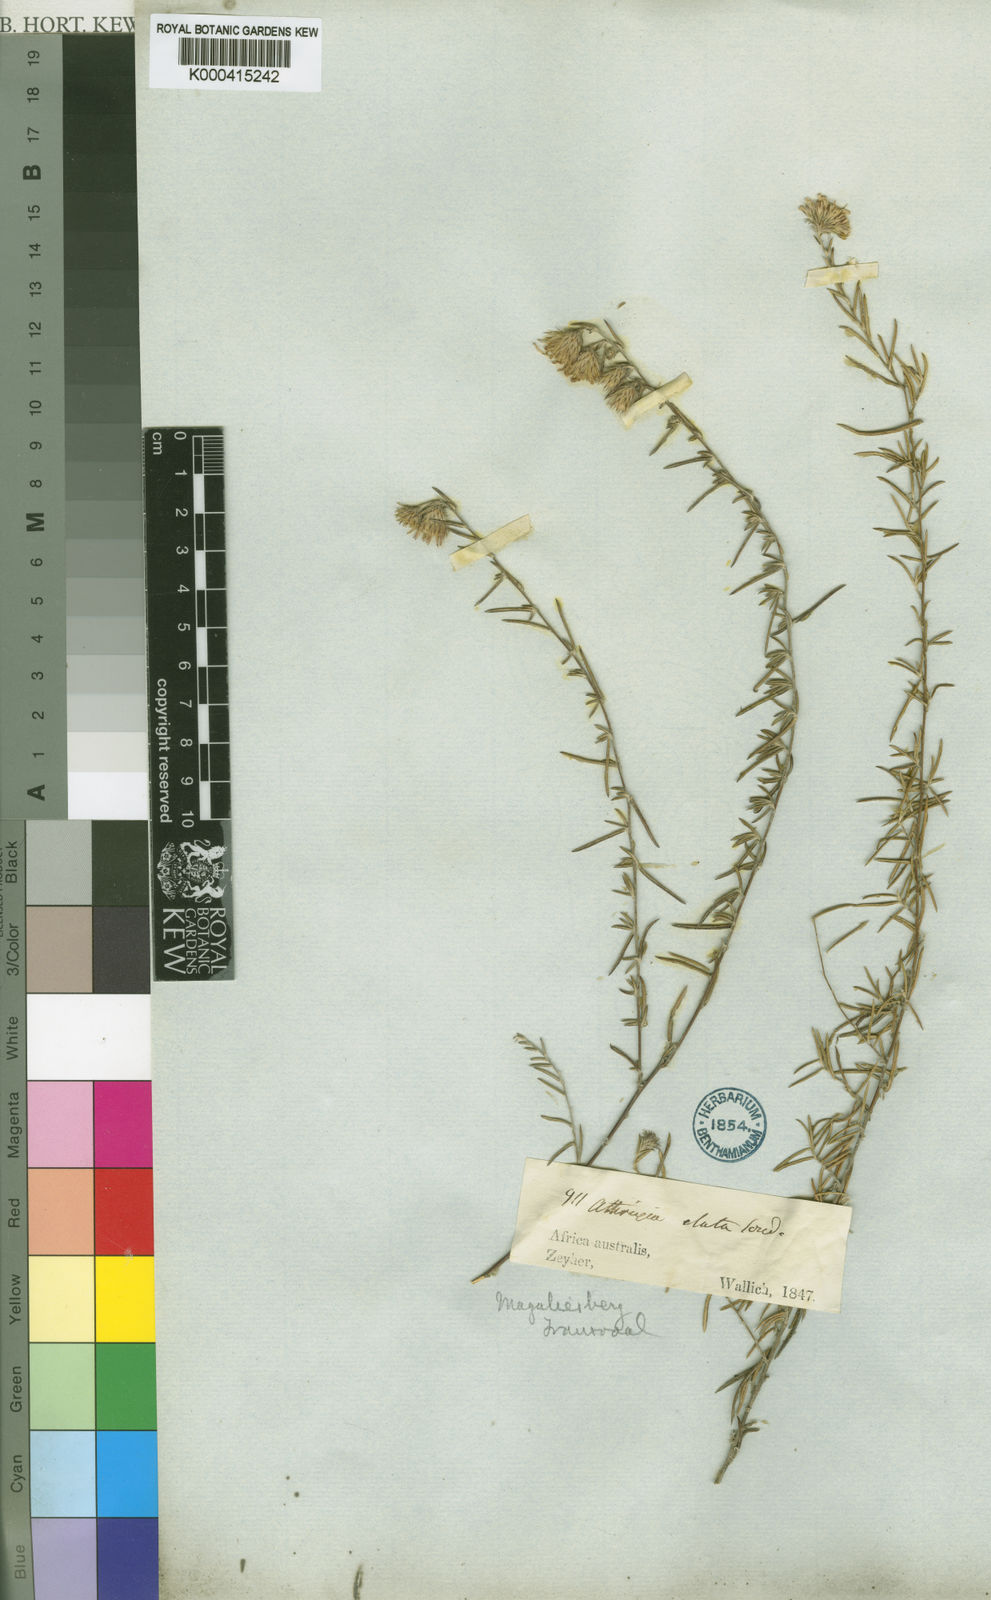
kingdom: Plantae
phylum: Tracheophyta
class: Magnoliopsida
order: Asterales
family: Asteraceae
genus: Athrixia
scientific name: Athrixia elata
